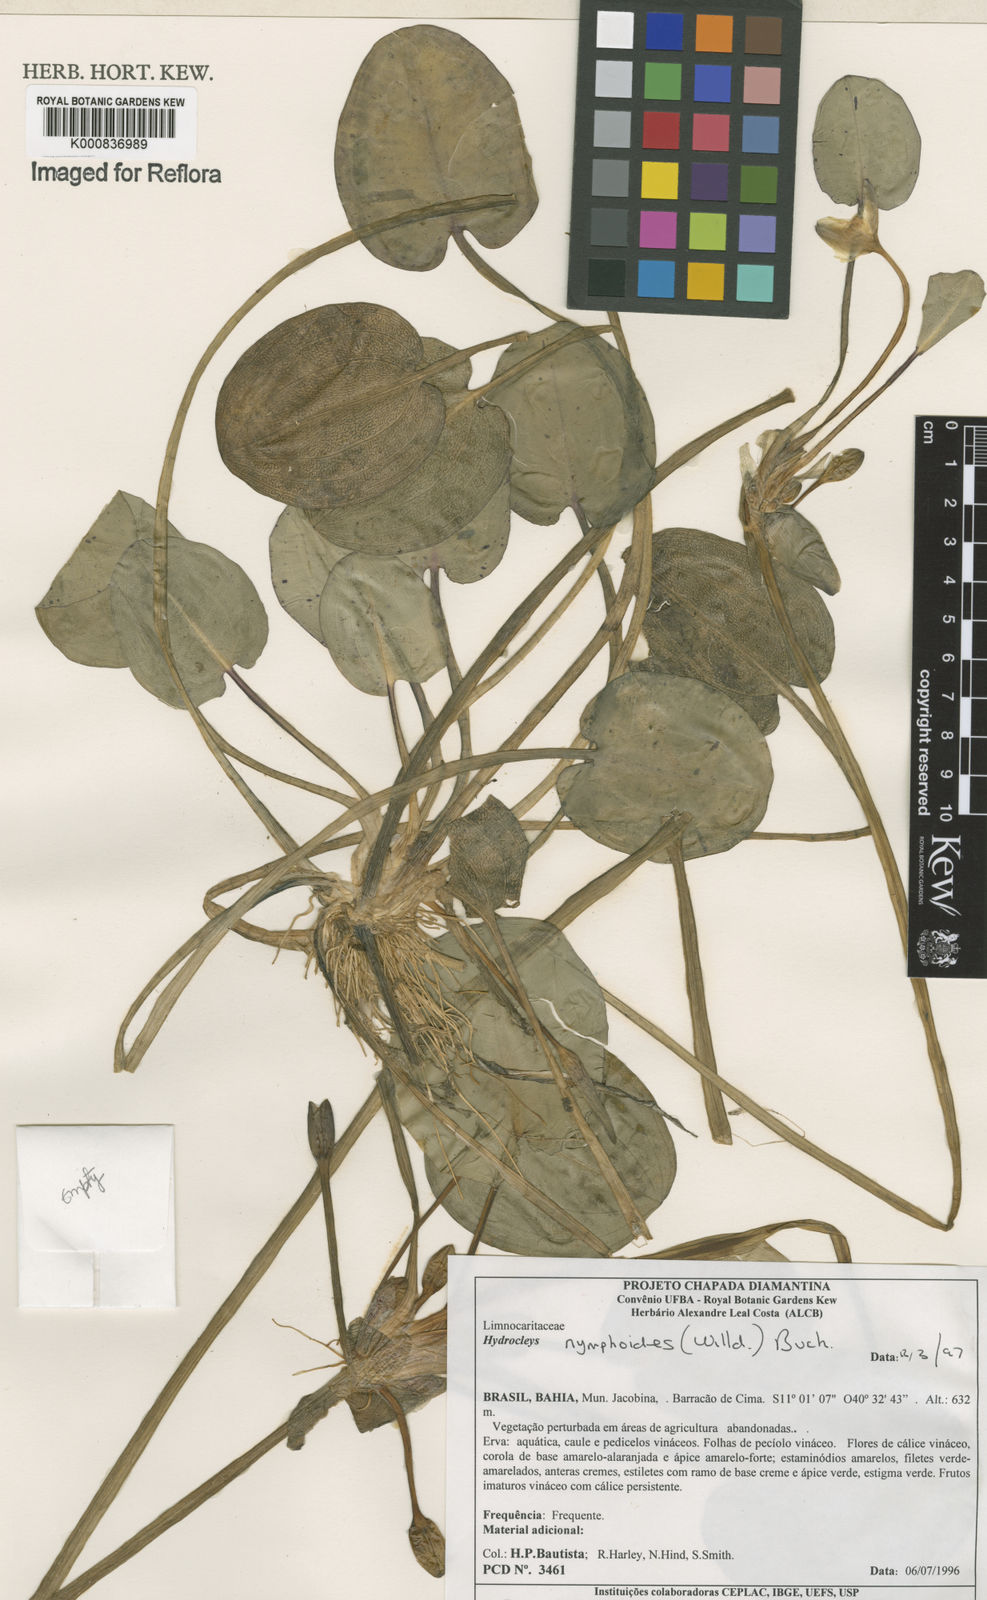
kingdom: Plantae
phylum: Tracheophyta
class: Liliopsida
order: Alismatales
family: Alismataceae
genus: Hydrocleys
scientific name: Hydrocleys nymphoides
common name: Water-poppy
